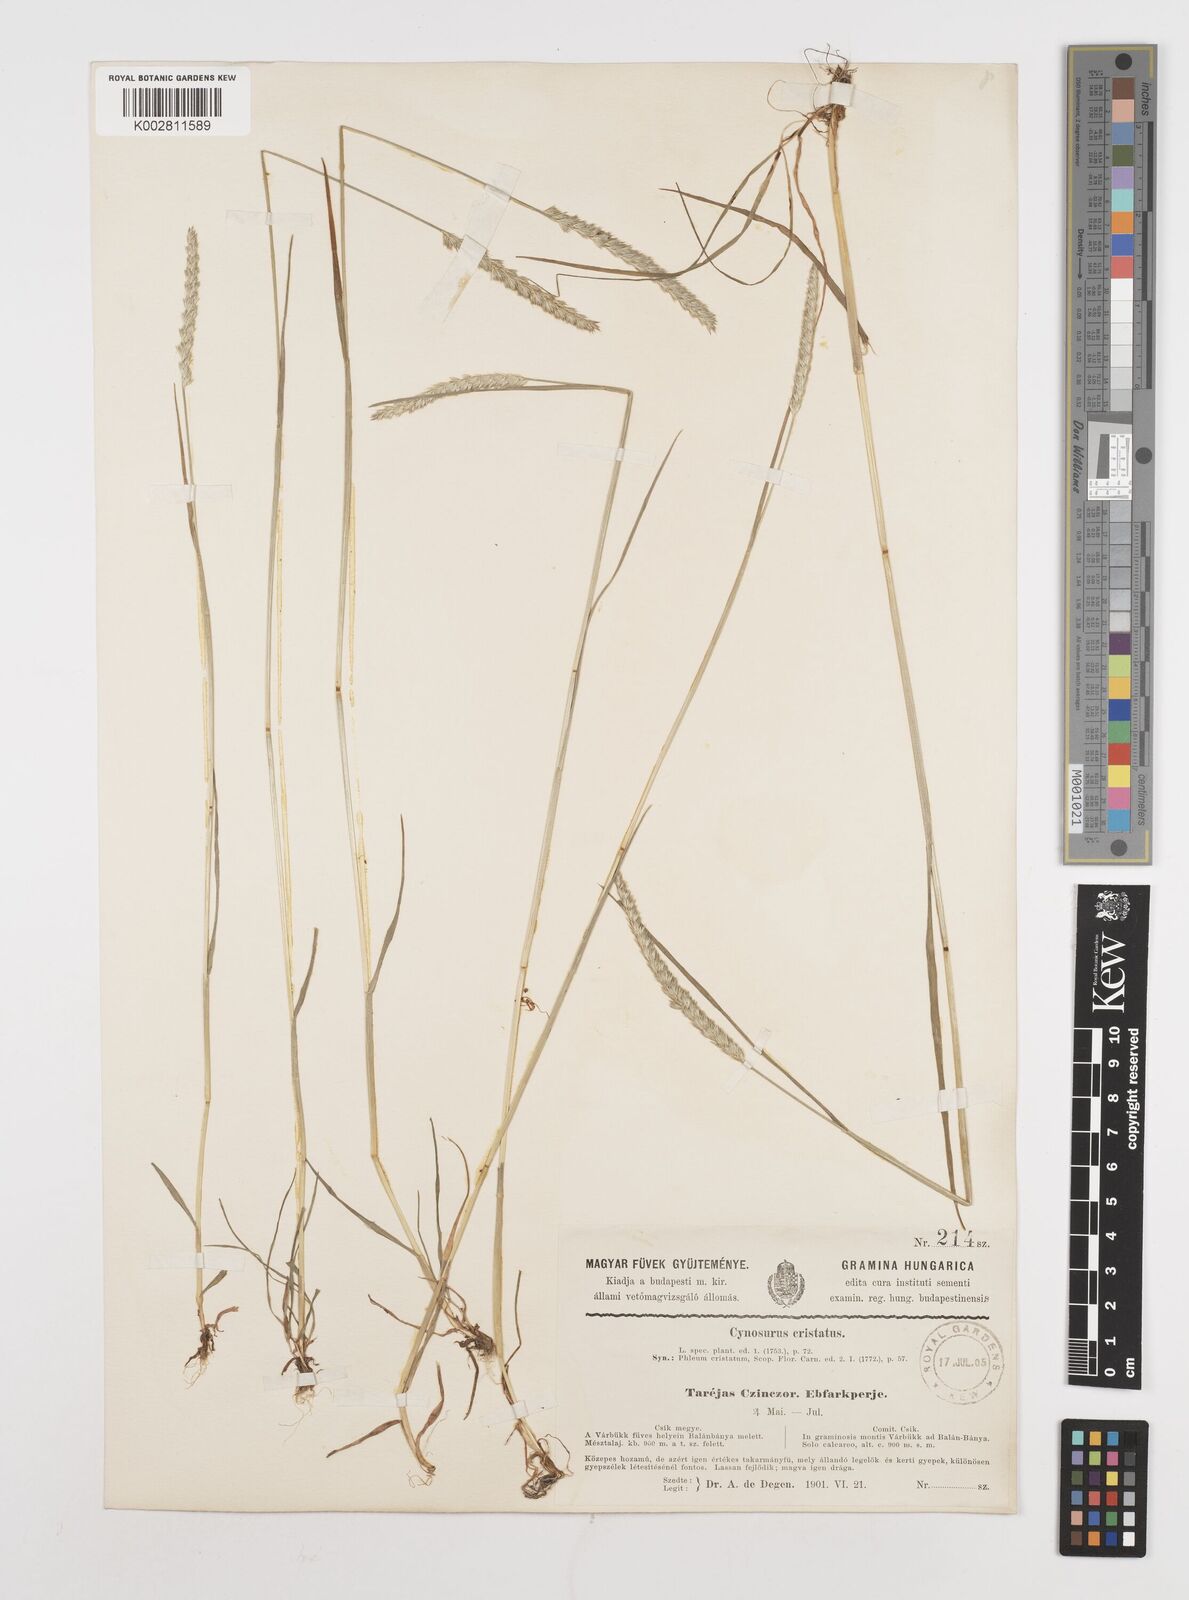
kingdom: Plantae
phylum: Tracheophyta
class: Liliopsida
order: Poales
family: Poaceae
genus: Cynosurus
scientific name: Cynosurus cristatus
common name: Crested dog's-tail
